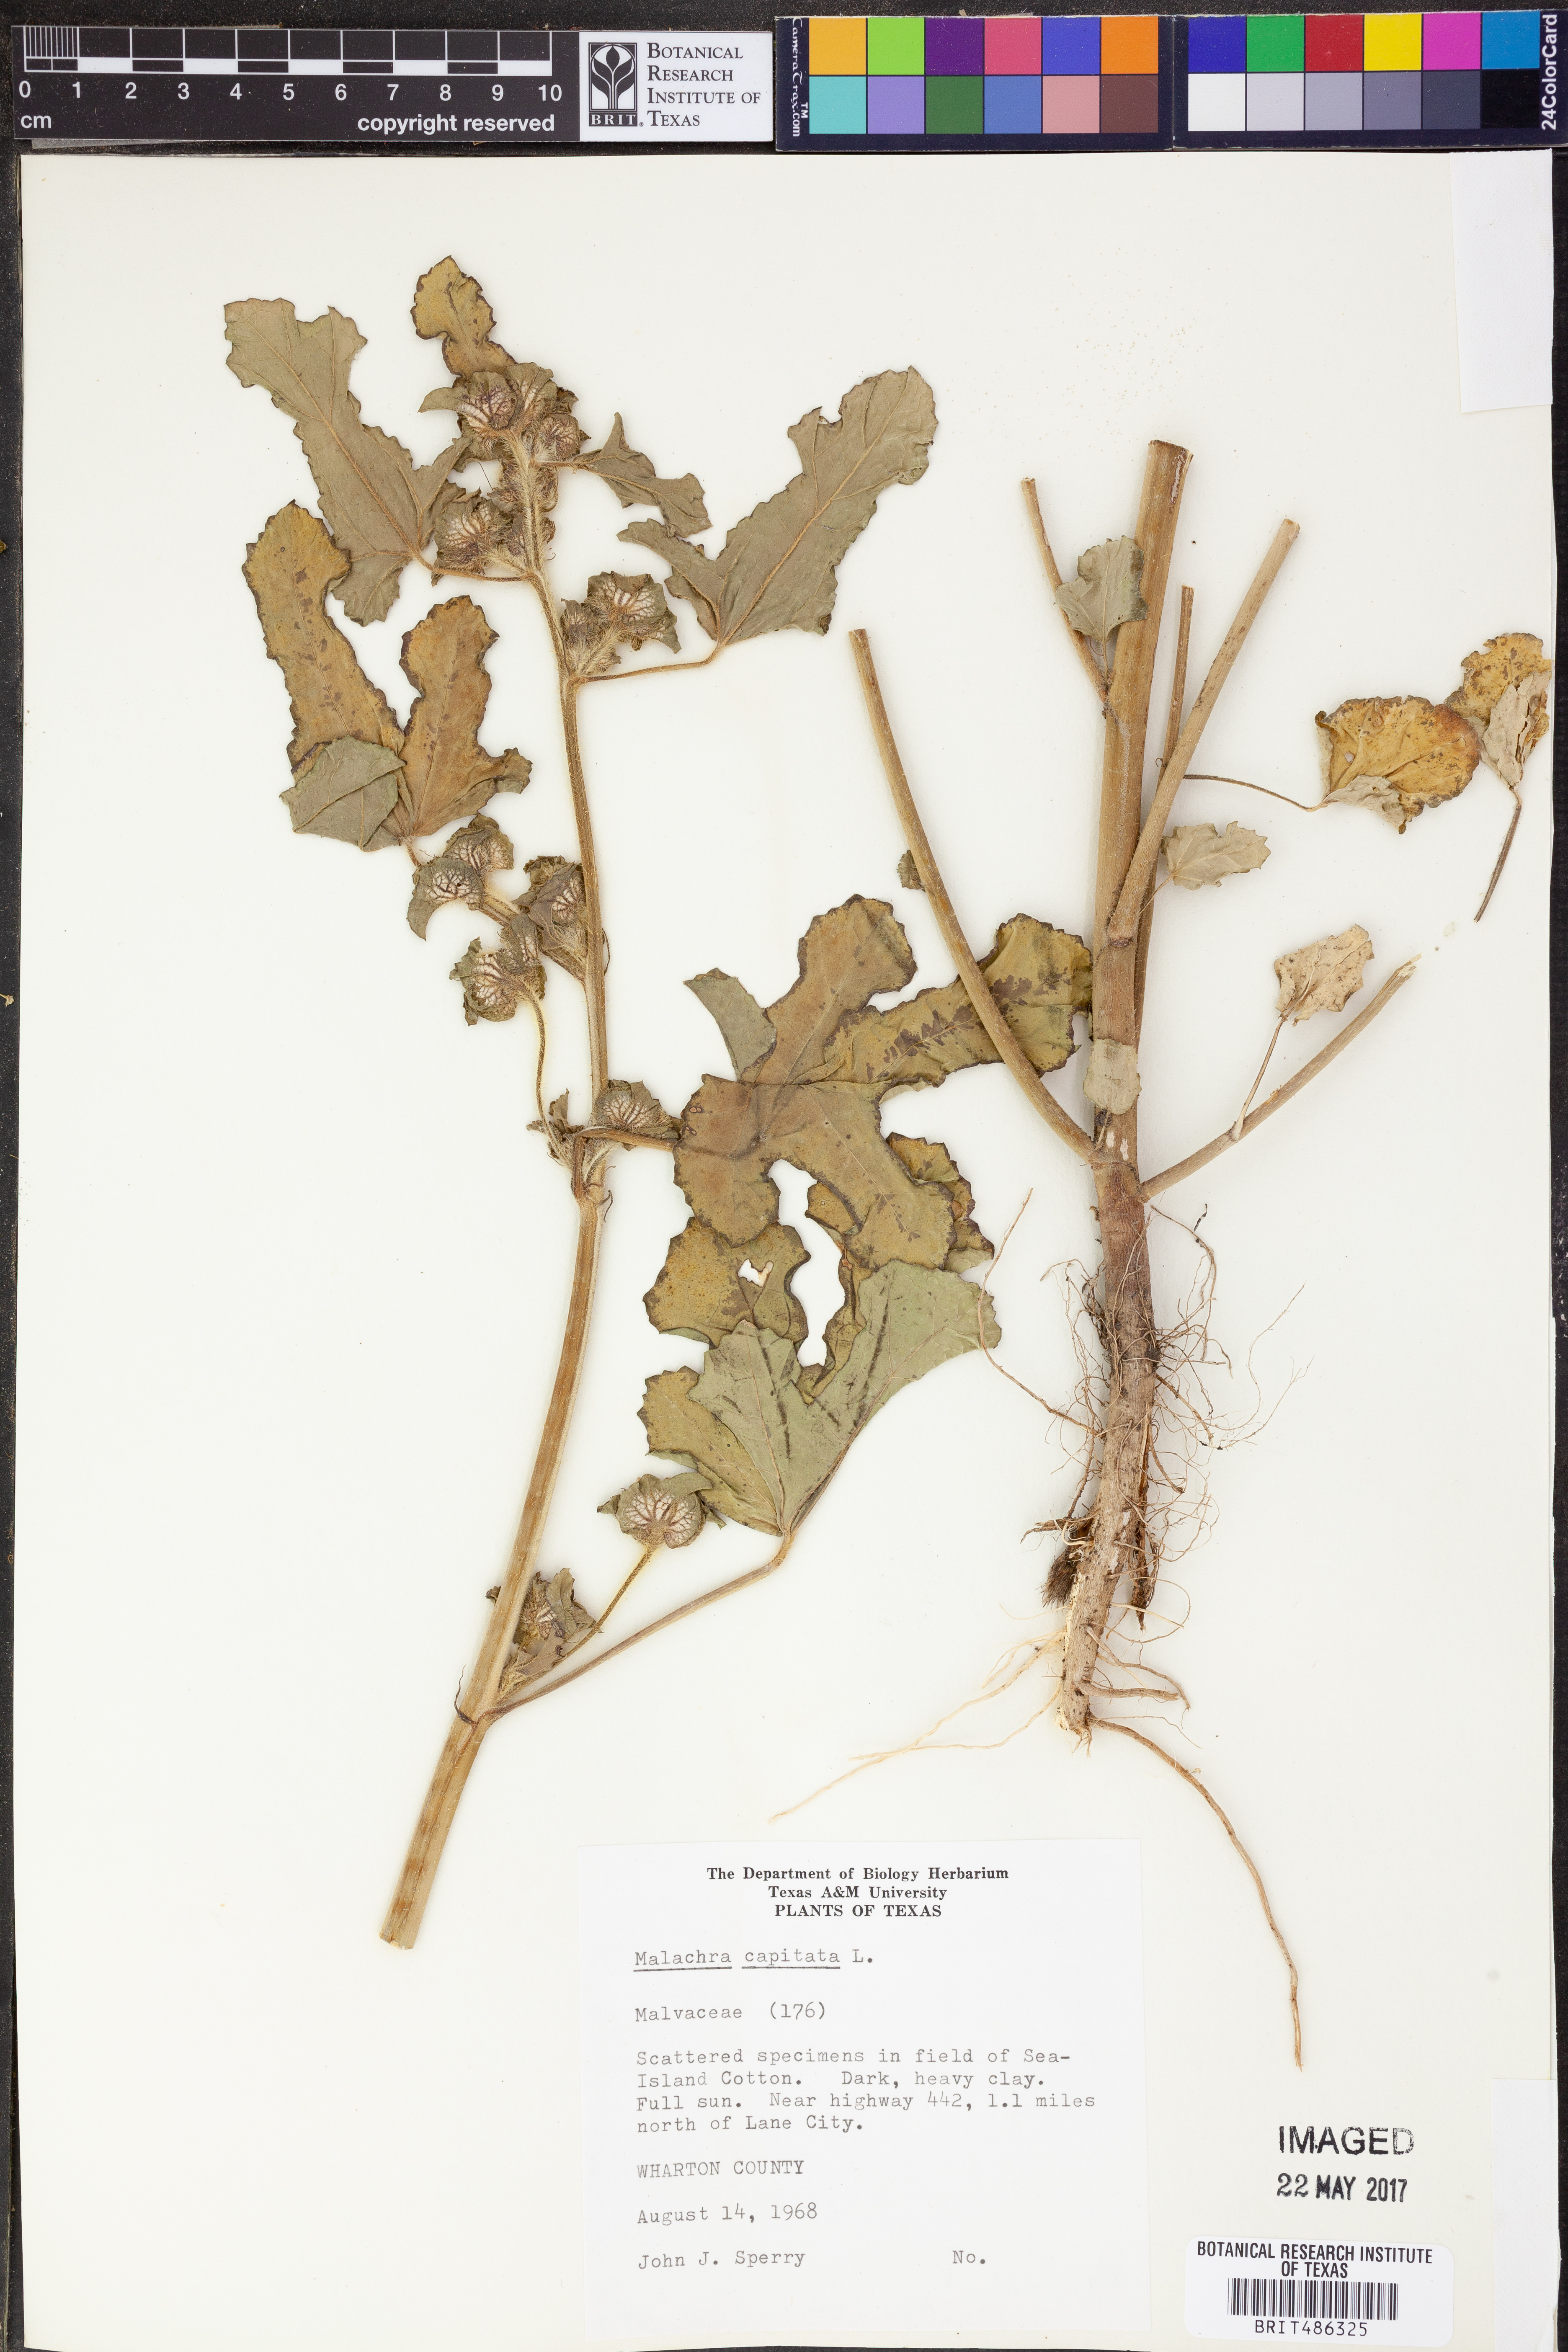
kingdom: Plantae
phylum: Tracheophyta
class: Magnoliopsida
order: Malvales
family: Malvaceae
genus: Malachra
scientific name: Malachra capitata
